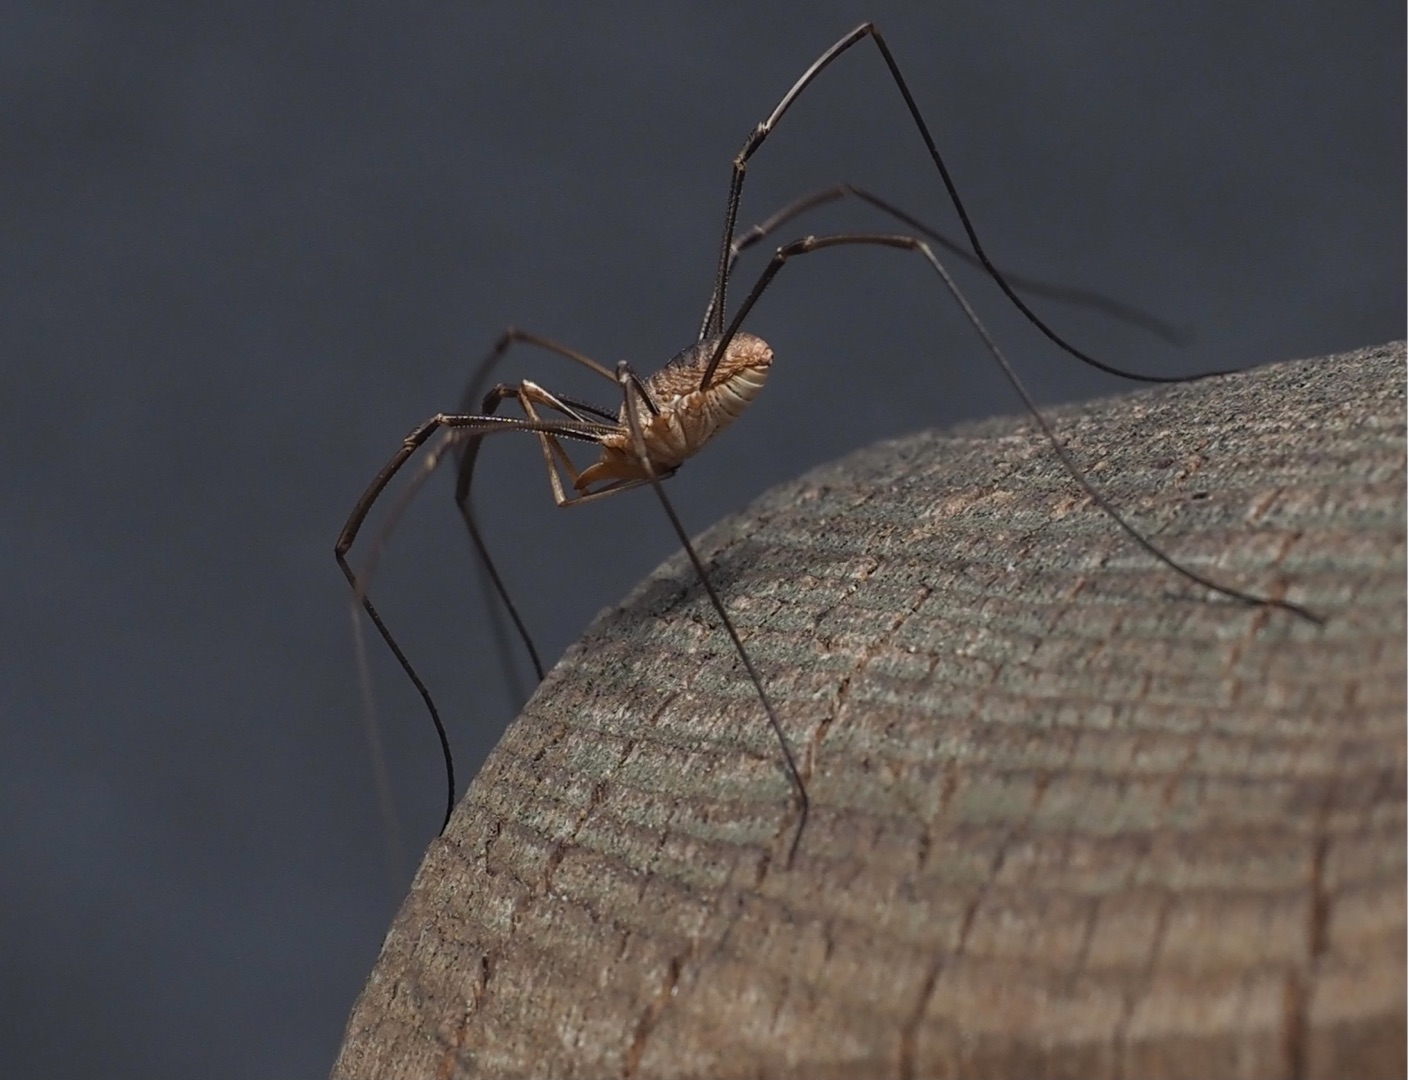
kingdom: Animalia
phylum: Arthropoda
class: Arachnida
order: Opiliones
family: Phalangiidae
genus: Phalangium
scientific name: Phalangium opilio
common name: Hornmejer
